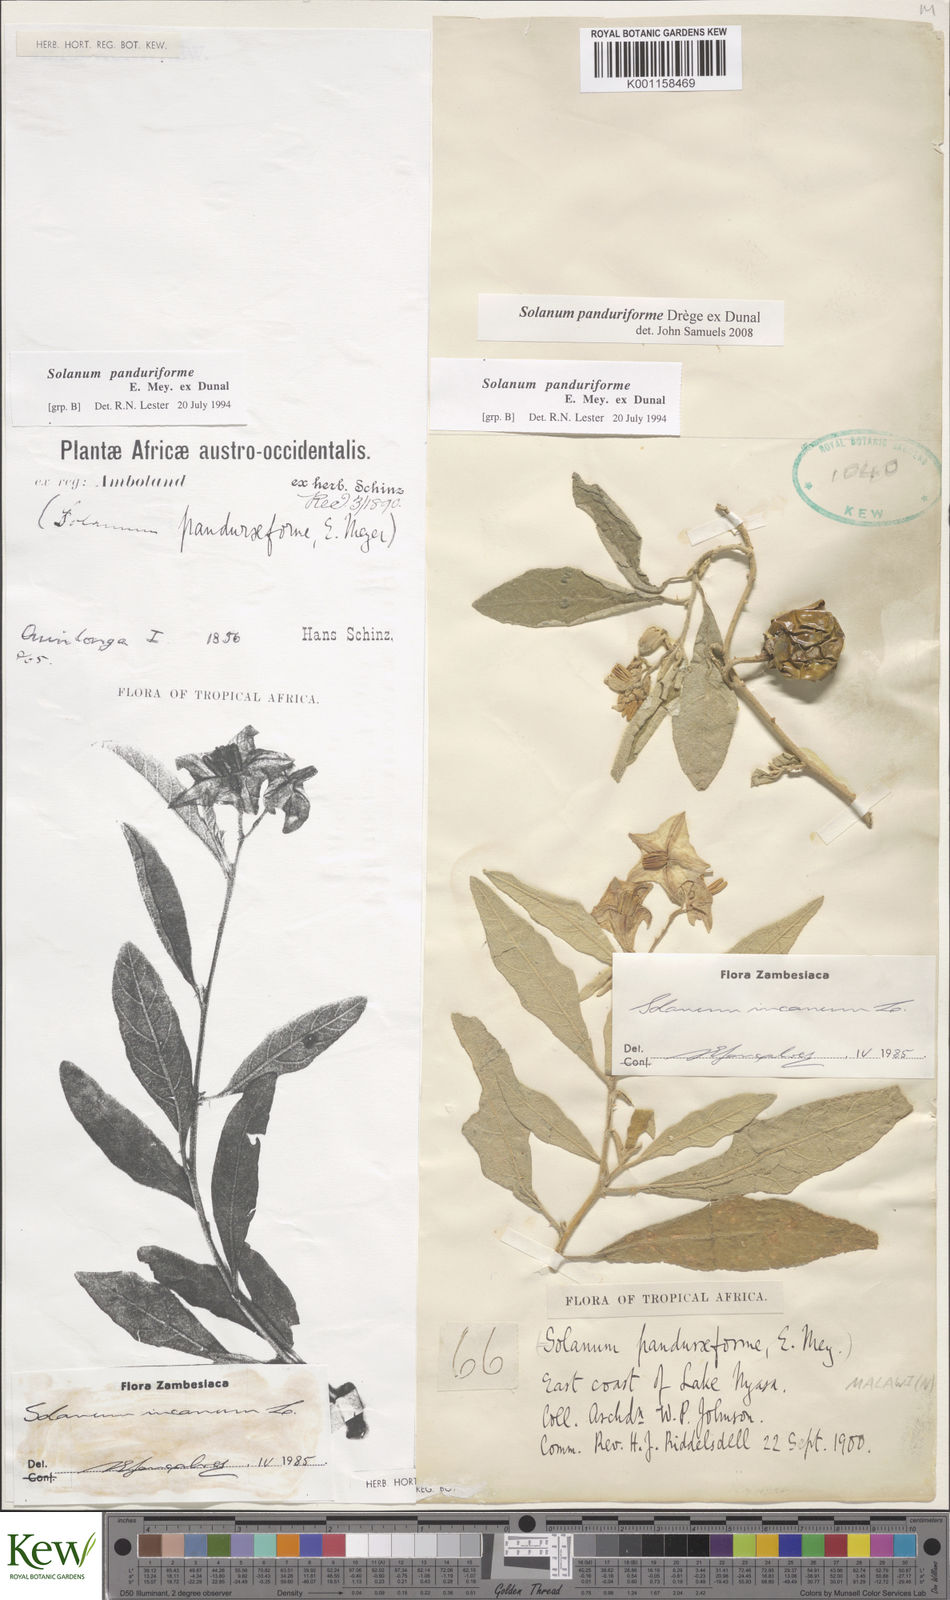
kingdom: Plantae
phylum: Tracheophyta
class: Magnoliopsida
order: Solanales
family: Solanaceae
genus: Solanum
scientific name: Solanum campylacanthum
